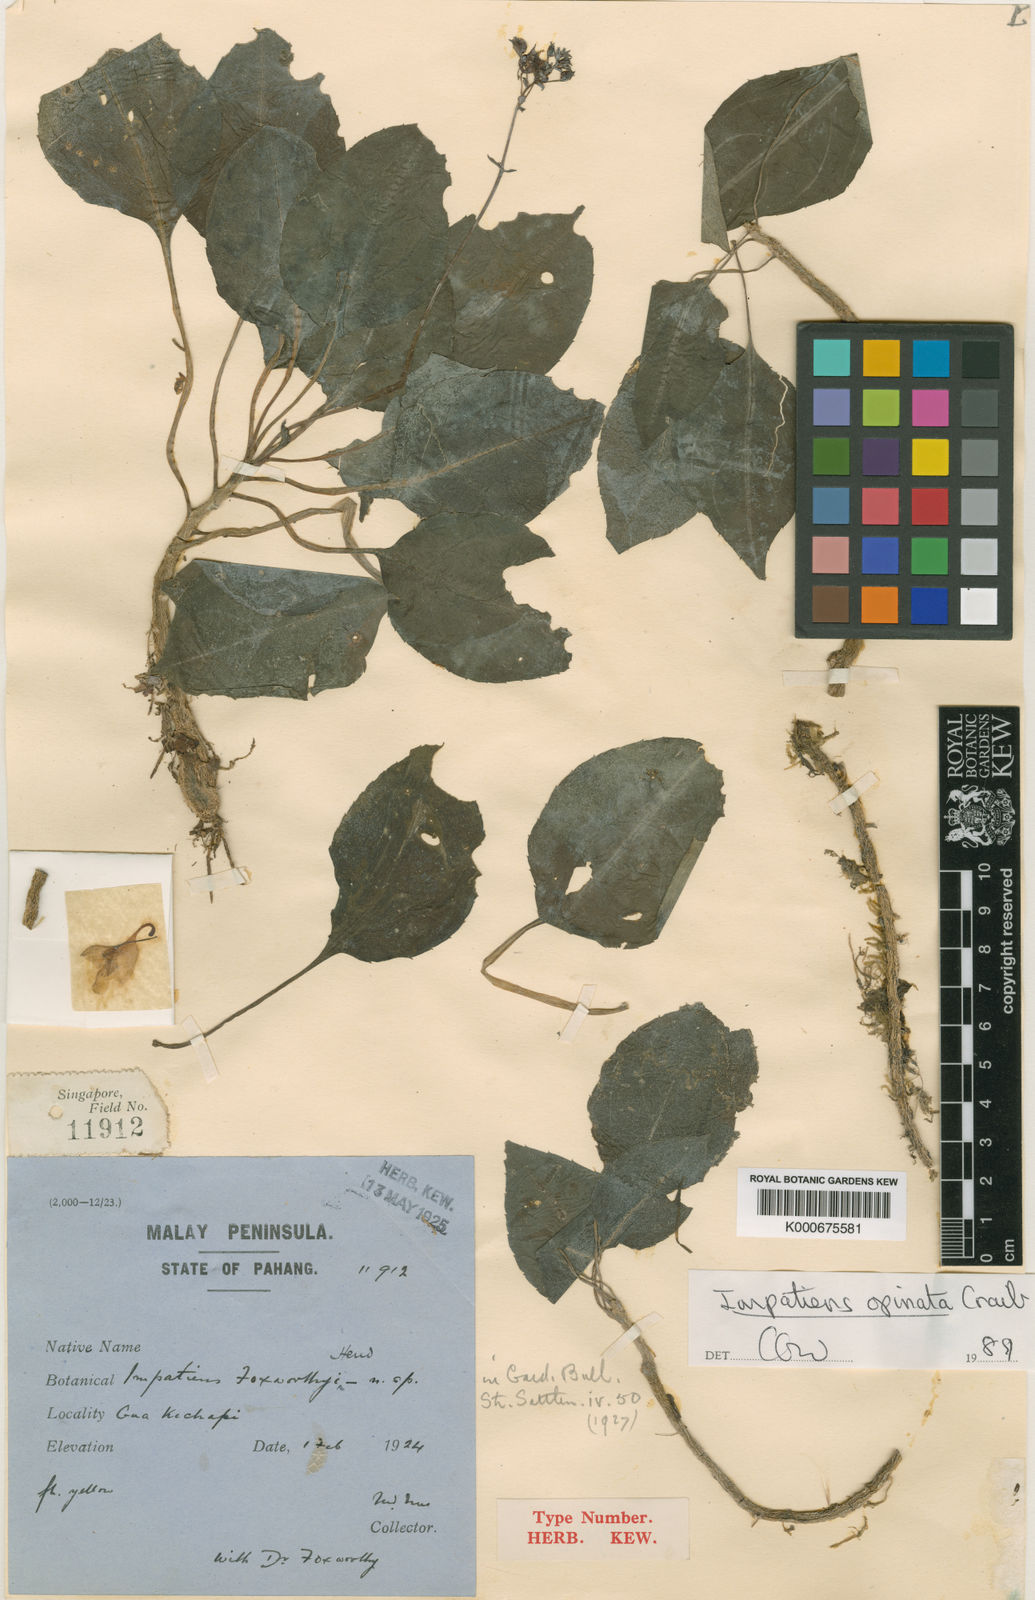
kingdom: Plantae
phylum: Tracheophyta
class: Magnoliopsida
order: Ericales
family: Balsaminaceae
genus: Impatiens
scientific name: Impatiens foxworthyi
